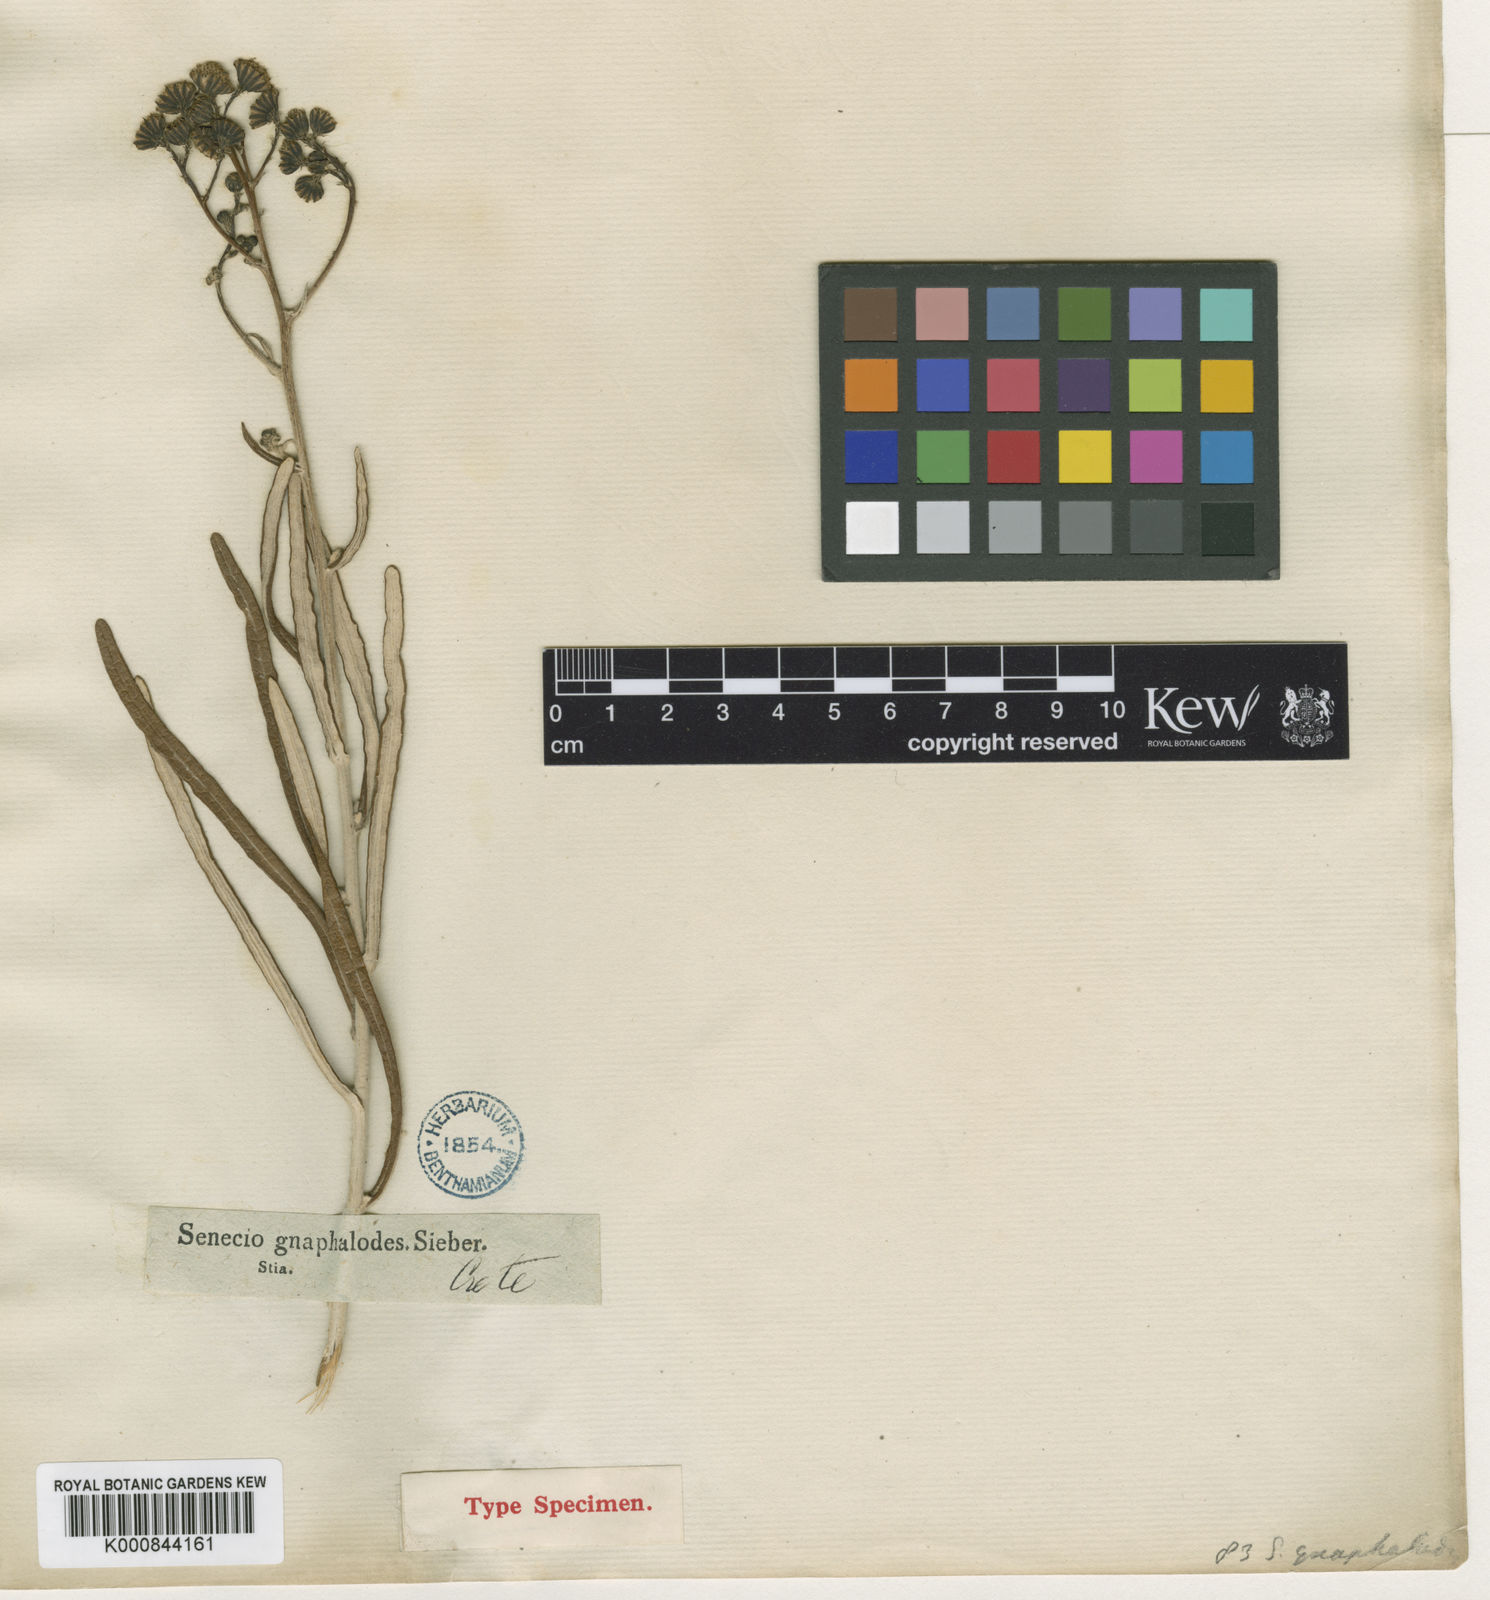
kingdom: Plantae
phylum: Tracheophyta
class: Magnoliopsida
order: Asterales
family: Asteraceae
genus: Jacobaea
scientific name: Jacobaea gnaphalioides
